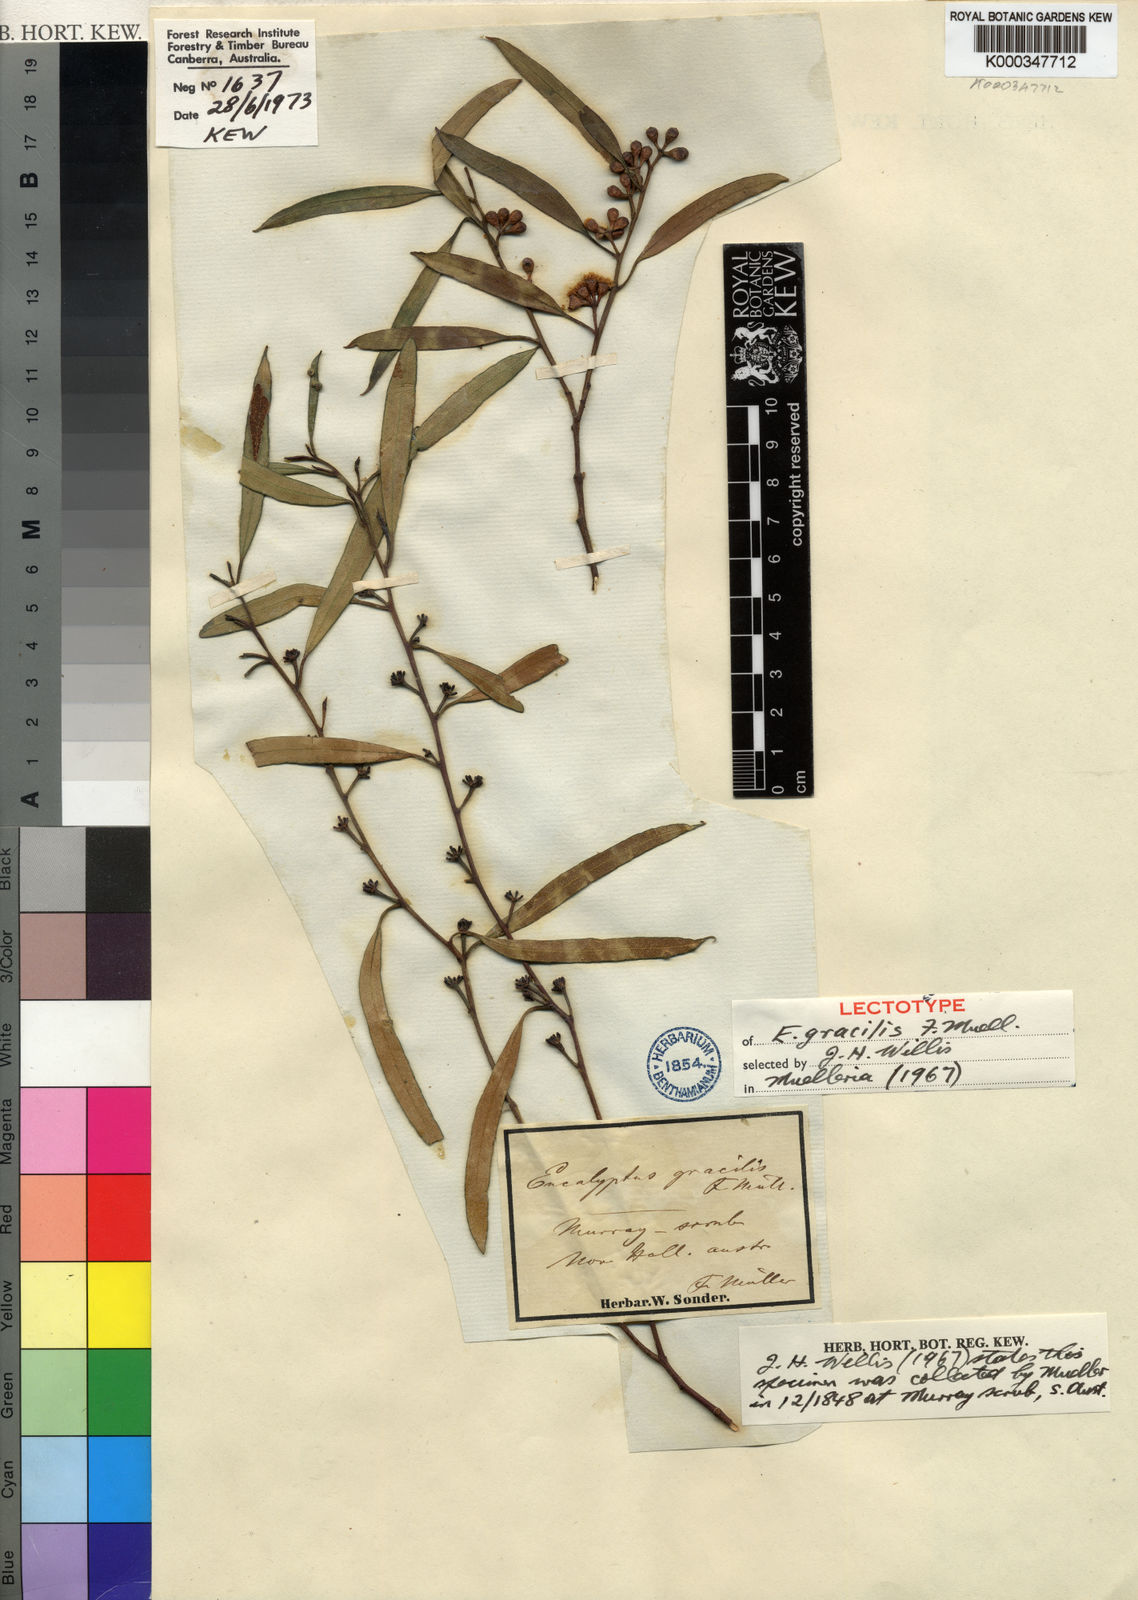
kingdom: Plantae
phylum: Tracheophyta
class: Magnoliopsida
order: Myrtales
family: Myrtaceae
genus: Eucalyptus
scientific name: Eucalyptus gracilis
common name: White mallee
